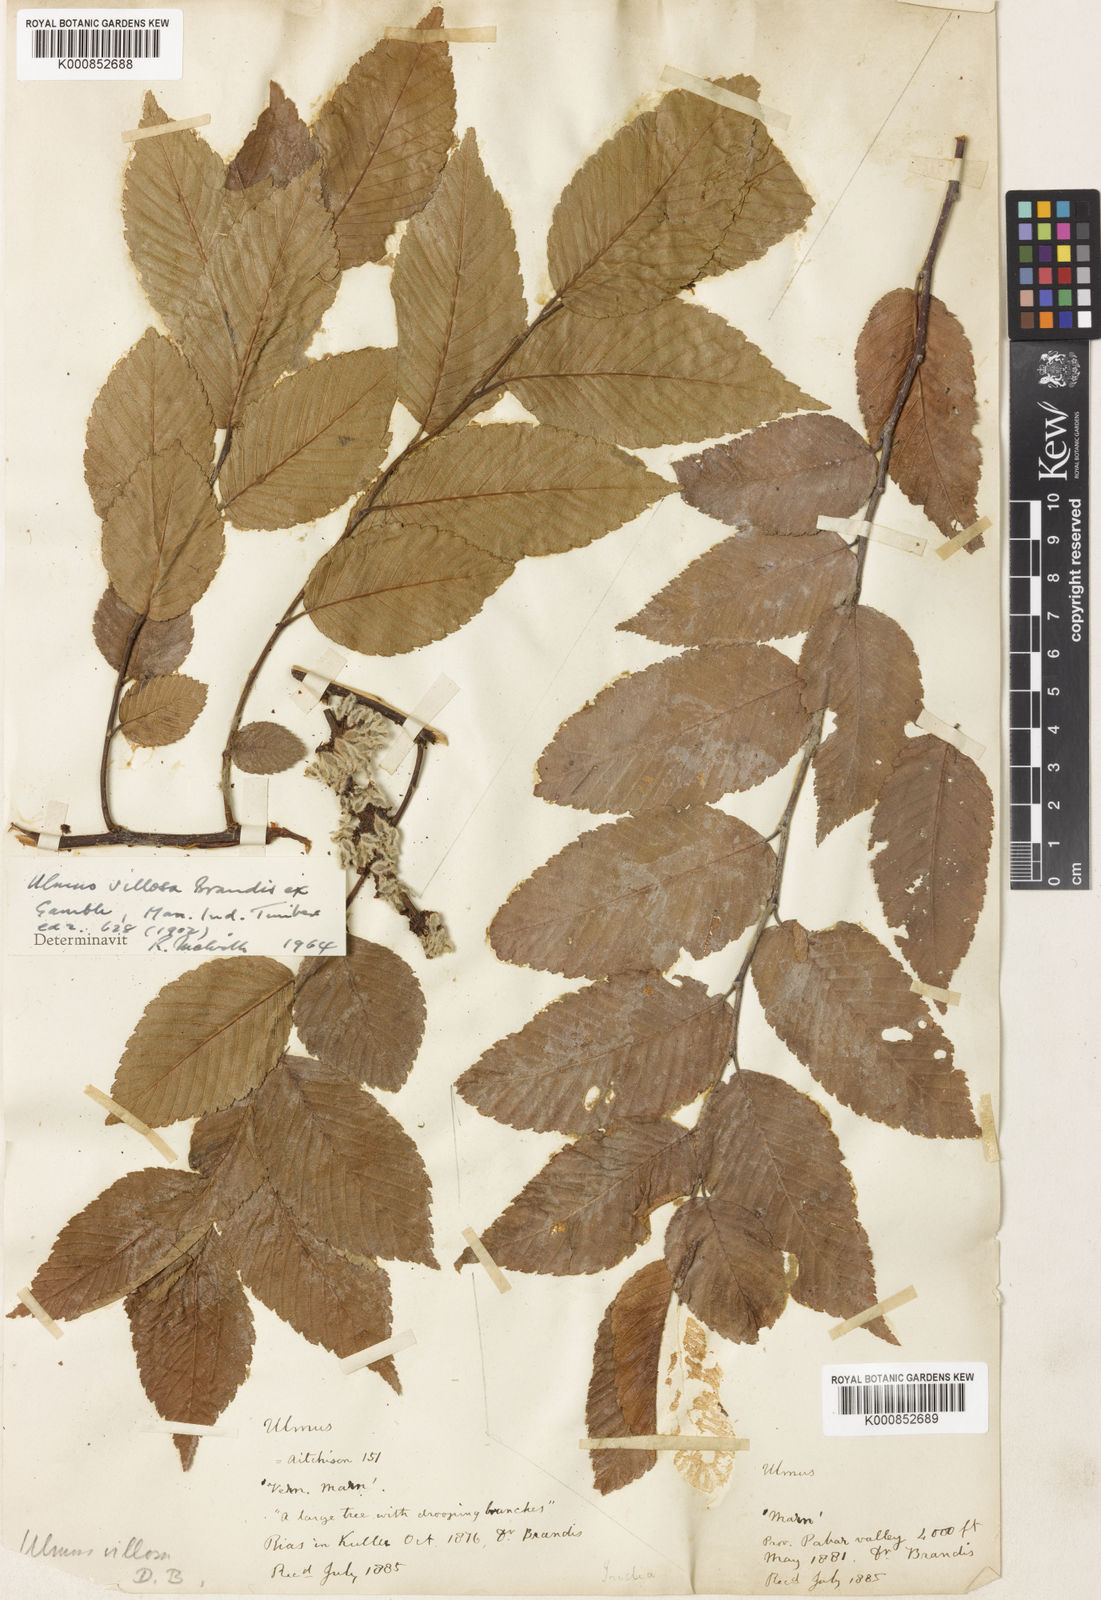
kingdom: Plantae
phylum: Tracheophyta
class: Magnoliopsida
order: Rosales
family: Ulmaceae
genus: Ulmus
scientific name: Ulmus villosa
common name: Cherry-bark elm
